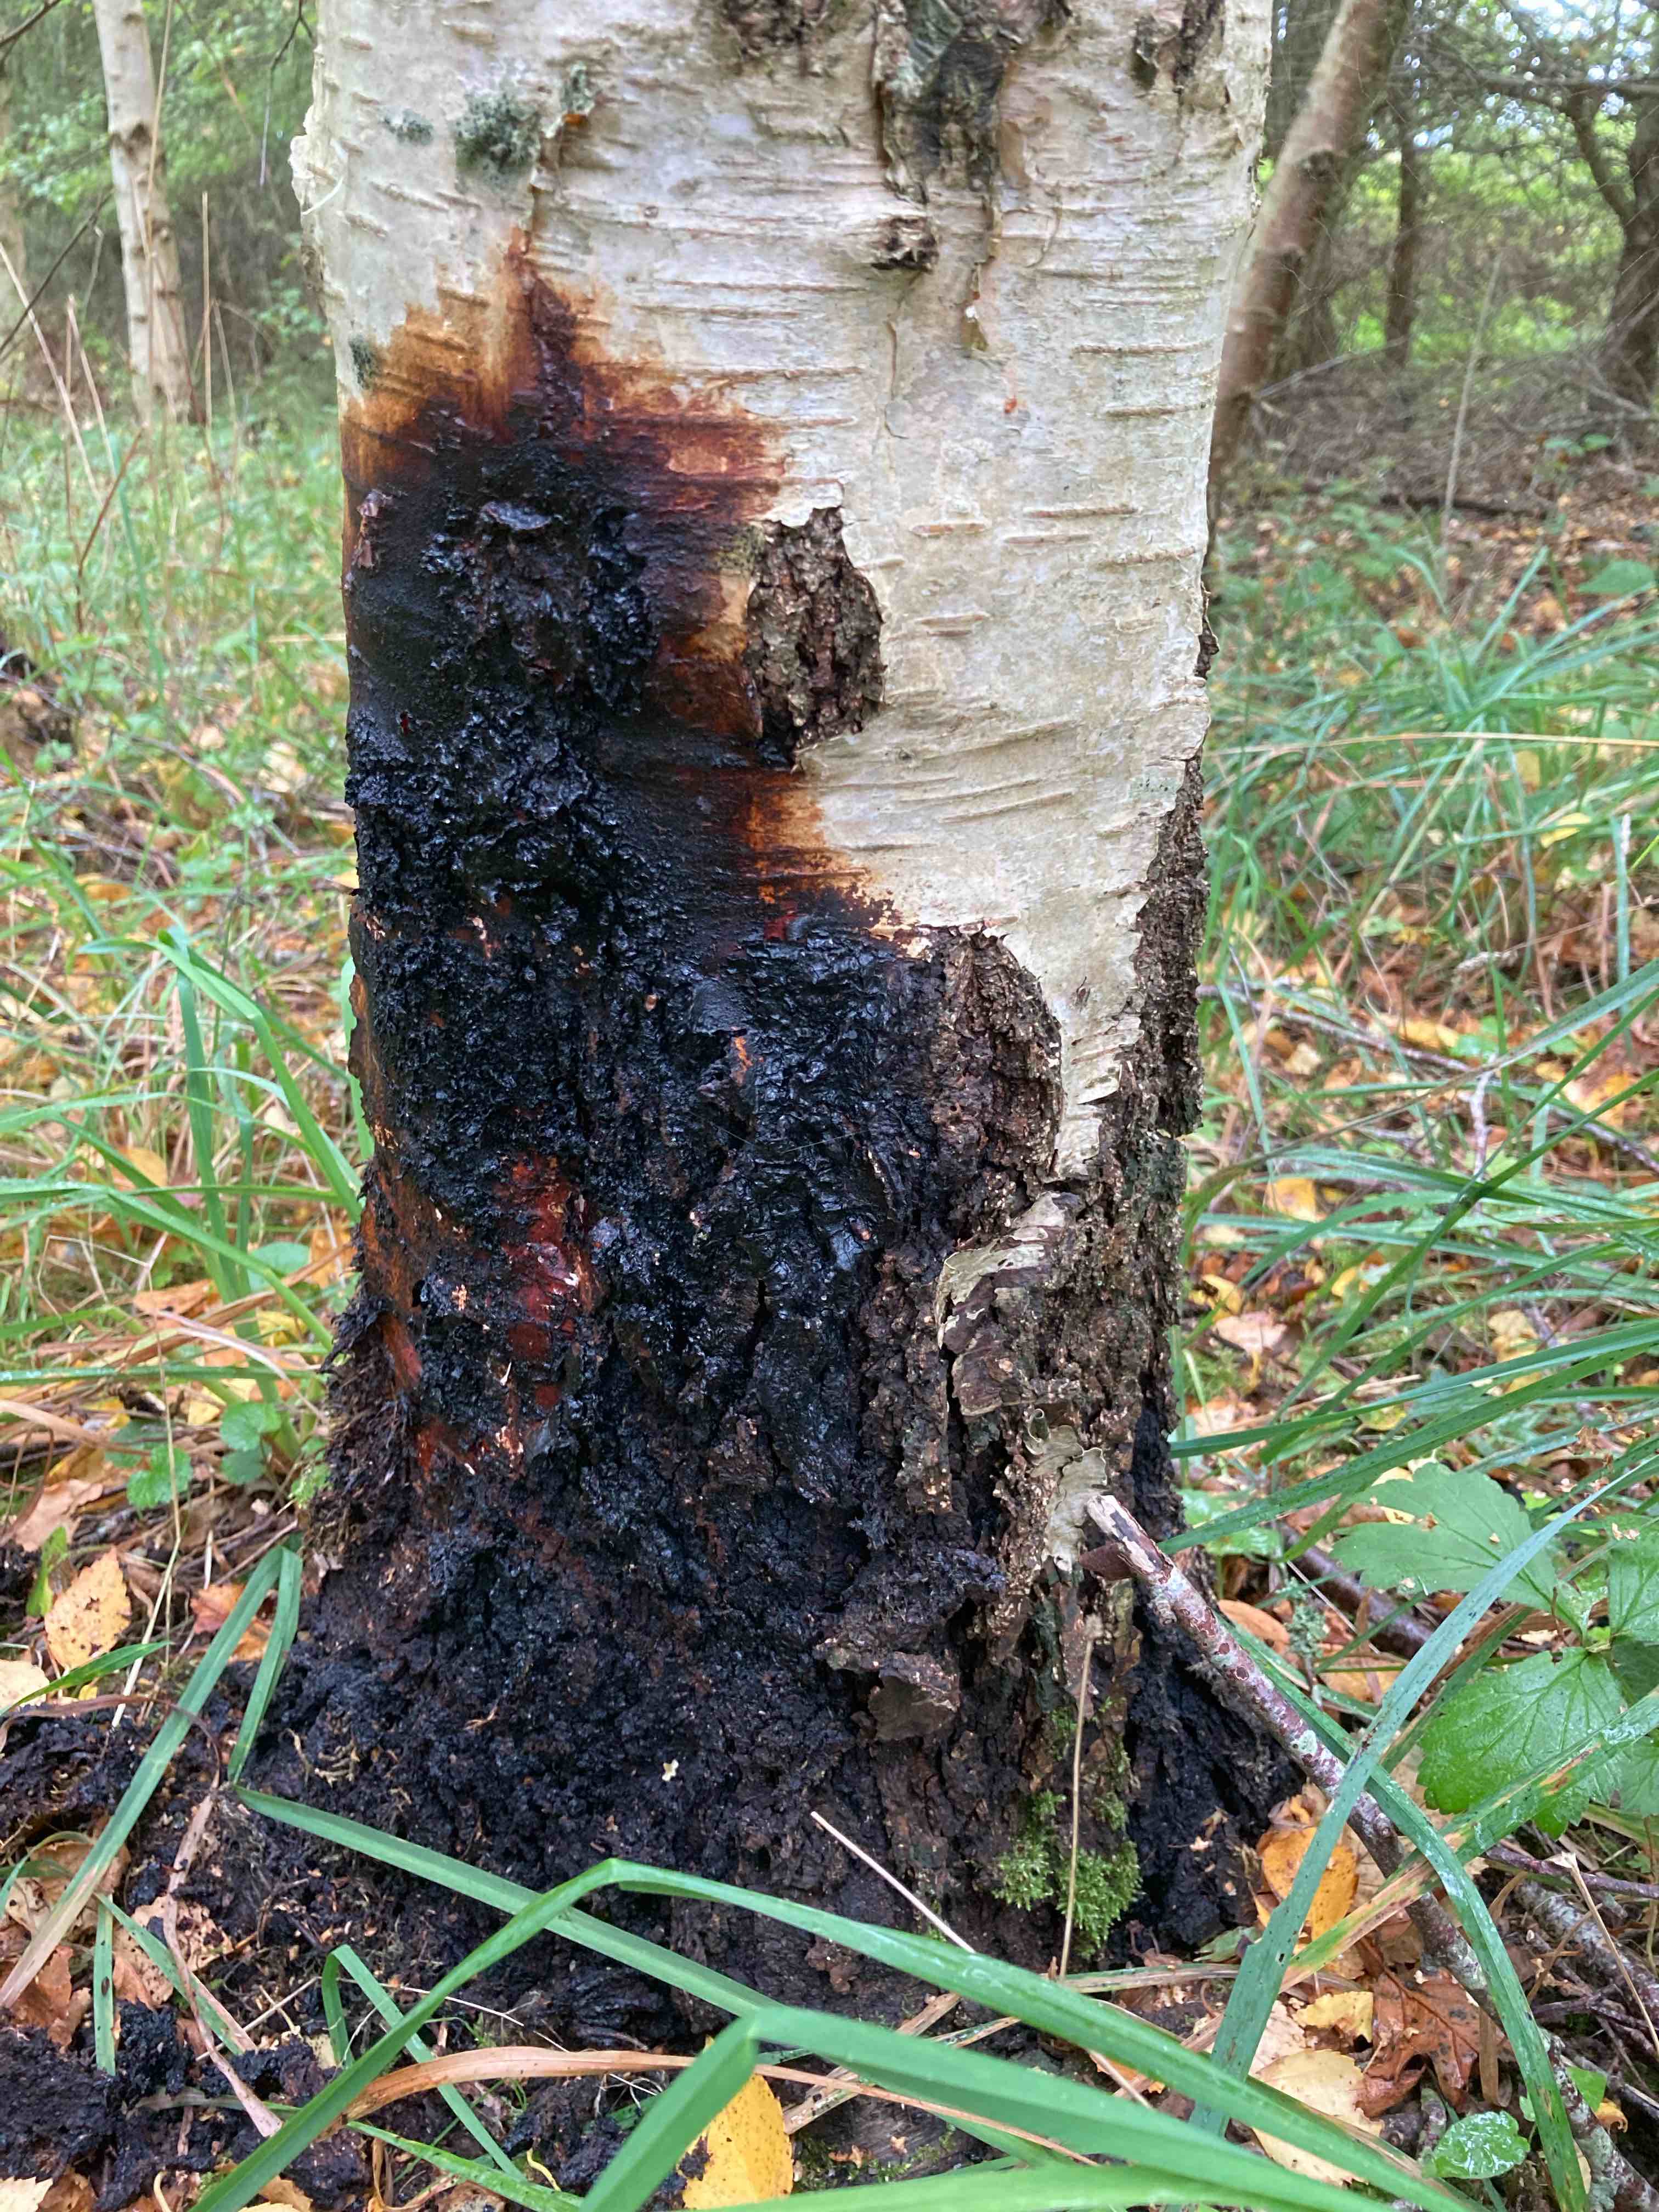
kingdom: Fungi
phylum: Basidiomycota
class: Agaricomycetes
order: Hymenochaetales
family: Hymenochaetaceae
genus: Inonotus
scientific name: Inonotus obliquus
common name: birke-spejlporesvamp
